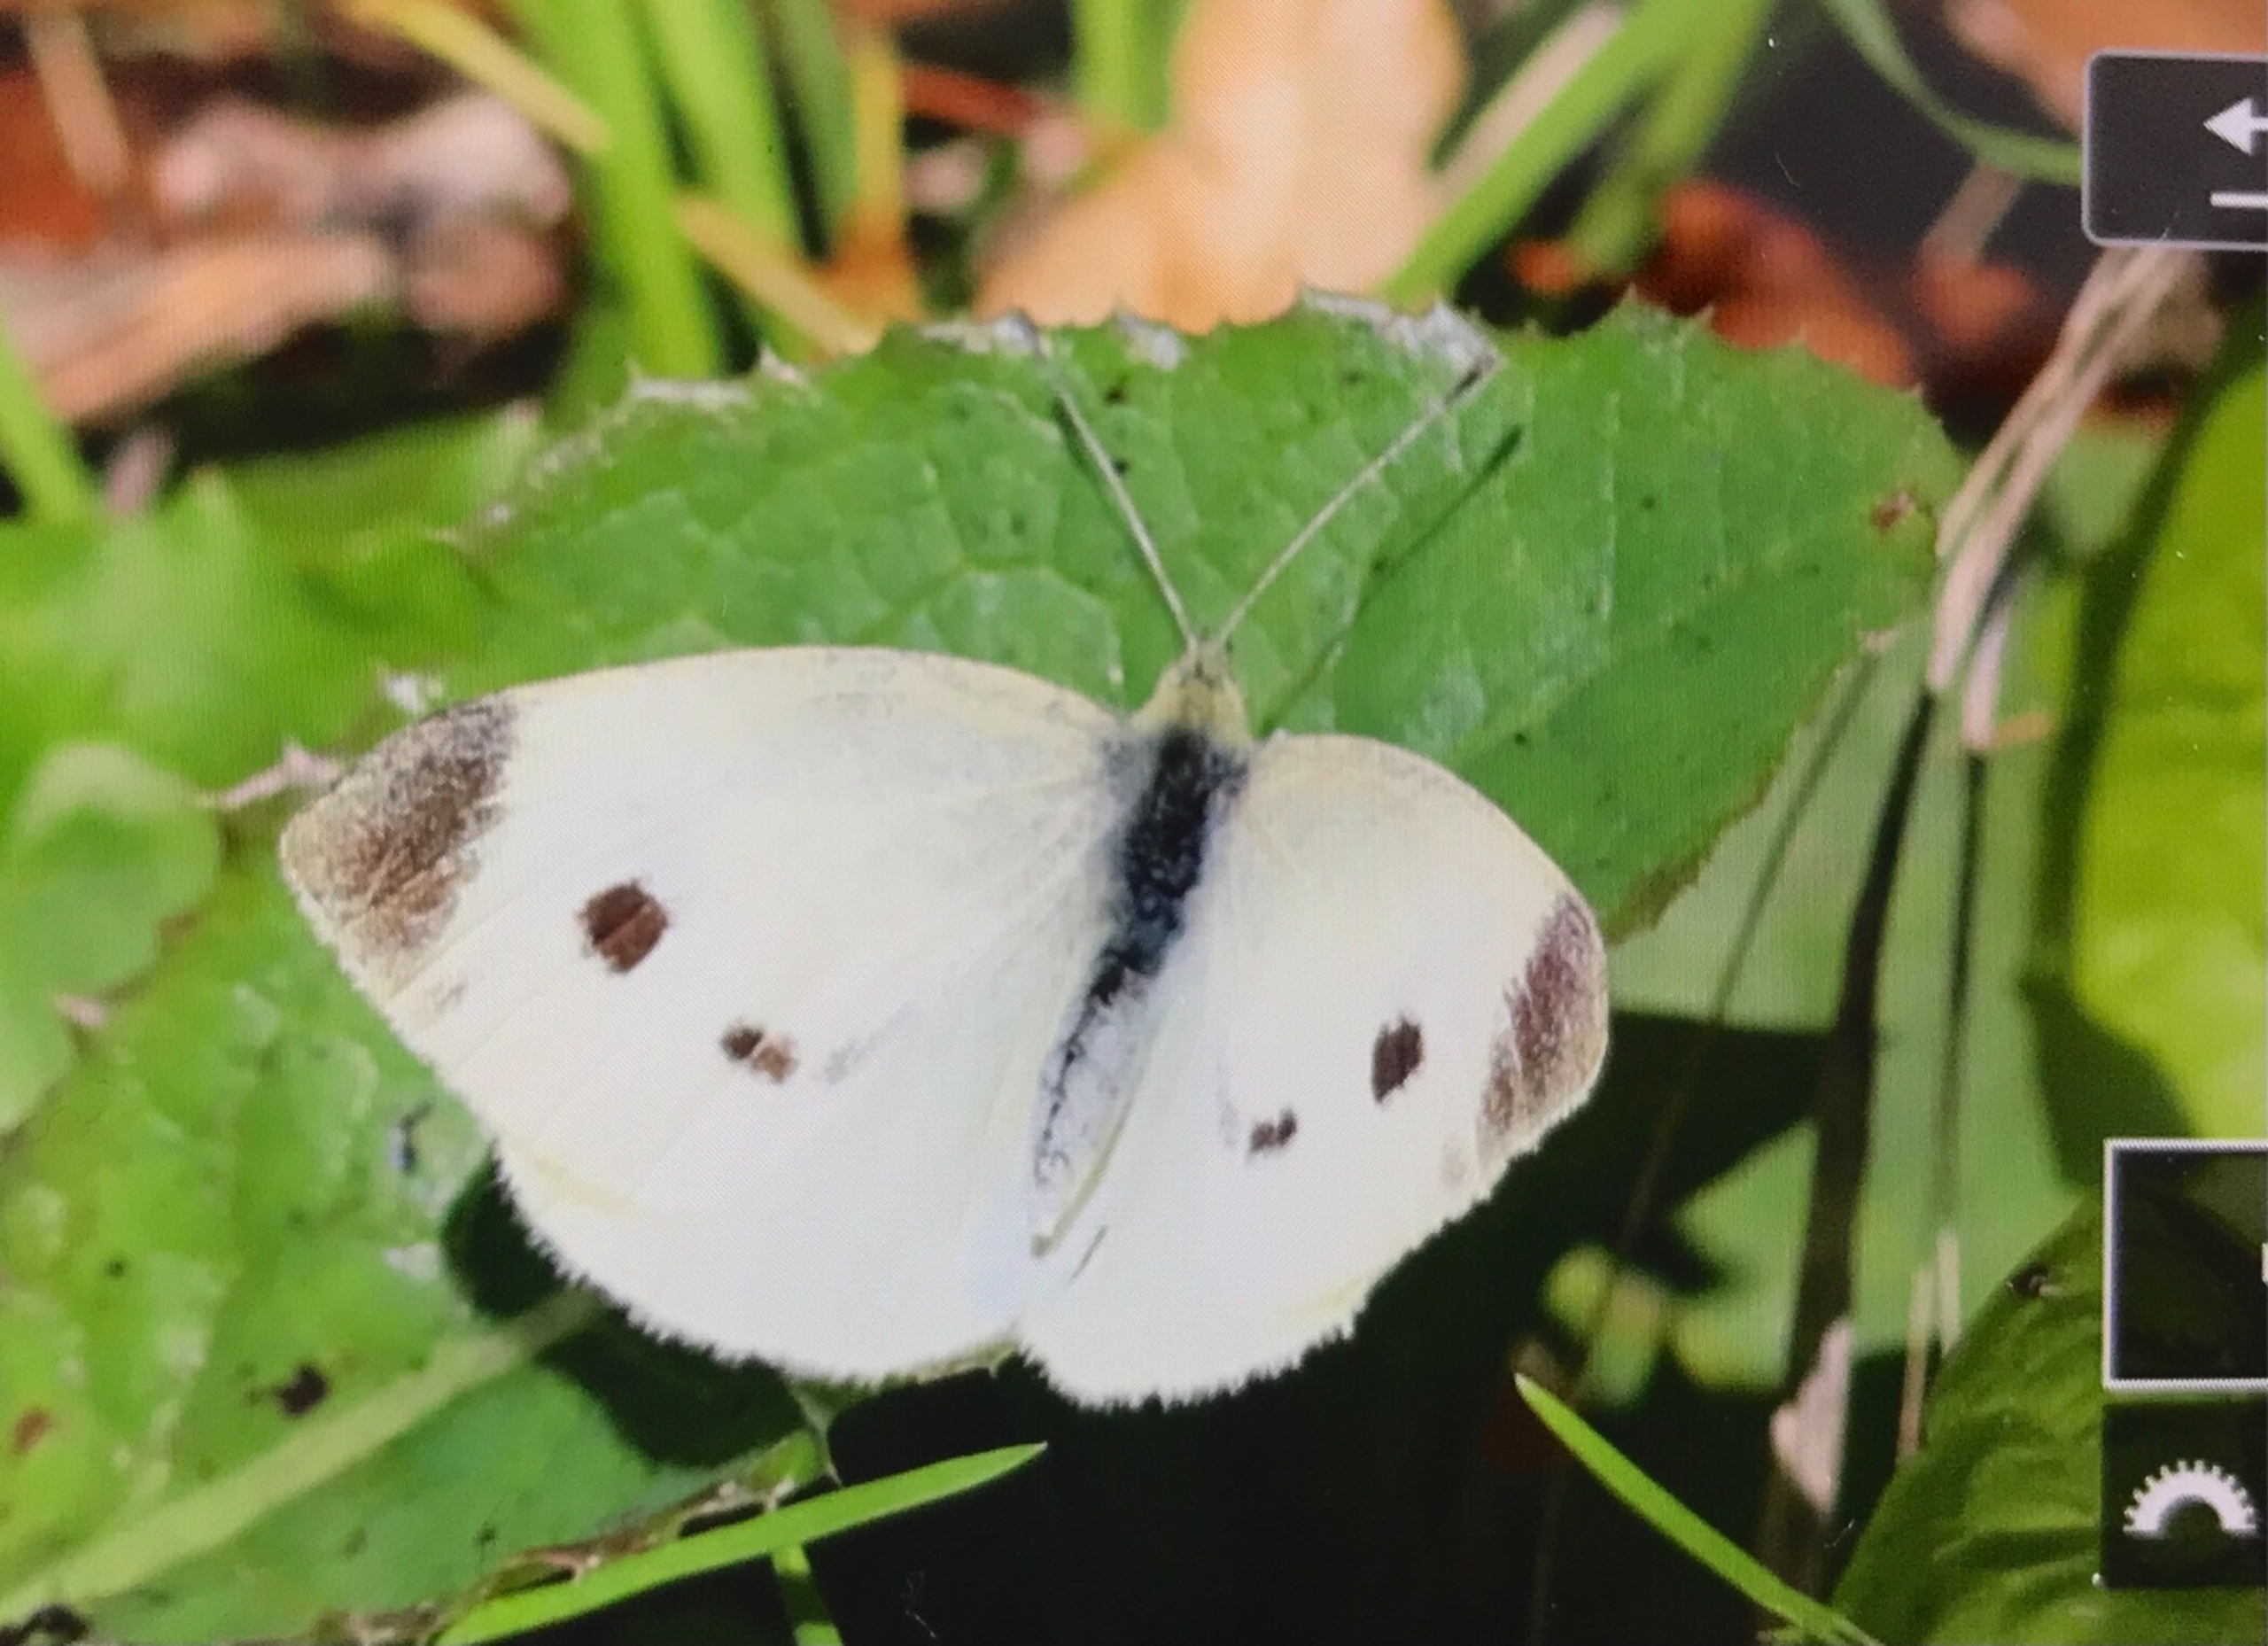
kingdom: Animalia
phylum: Arthropoda
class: Insecta
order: Lepidoptera
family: Pieridae
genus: Pieris
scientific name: Pieris rapae
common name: Lille kålsommerfugl
